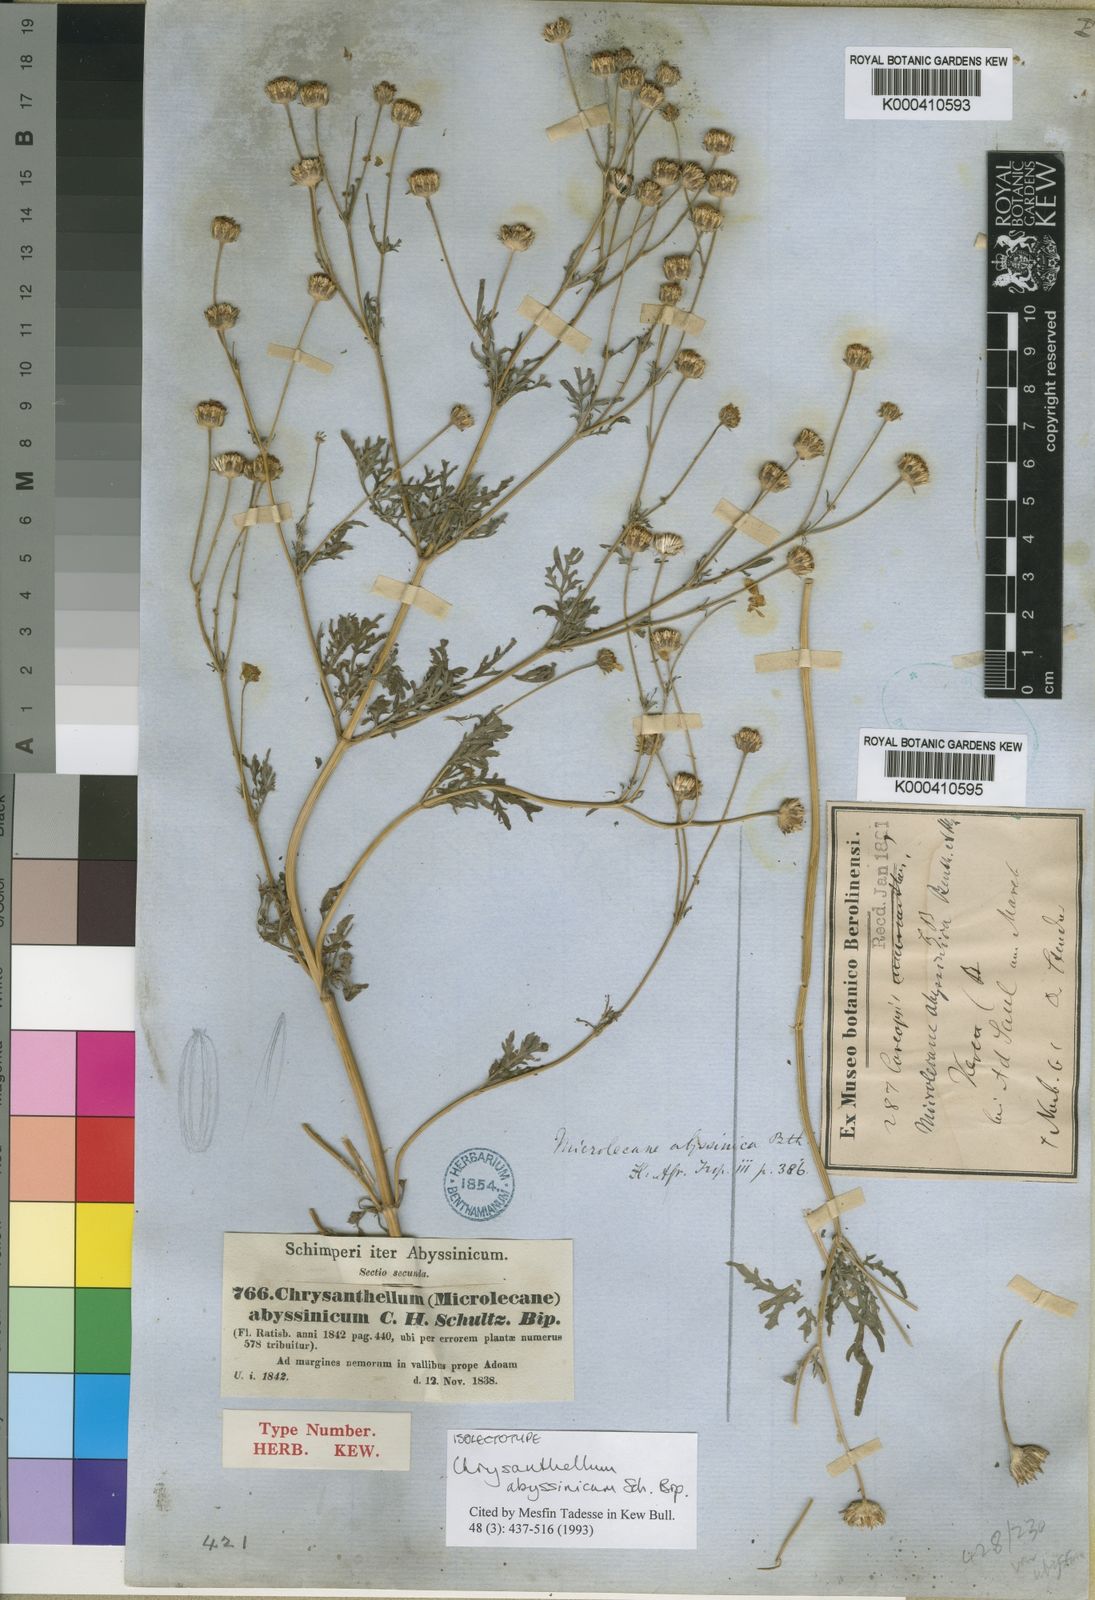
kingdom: Plantae
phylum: Tracheophyta
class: Magnoliopsida
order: Asterales
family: Asteraceae
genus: Bidens
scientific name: Bidens setigera
